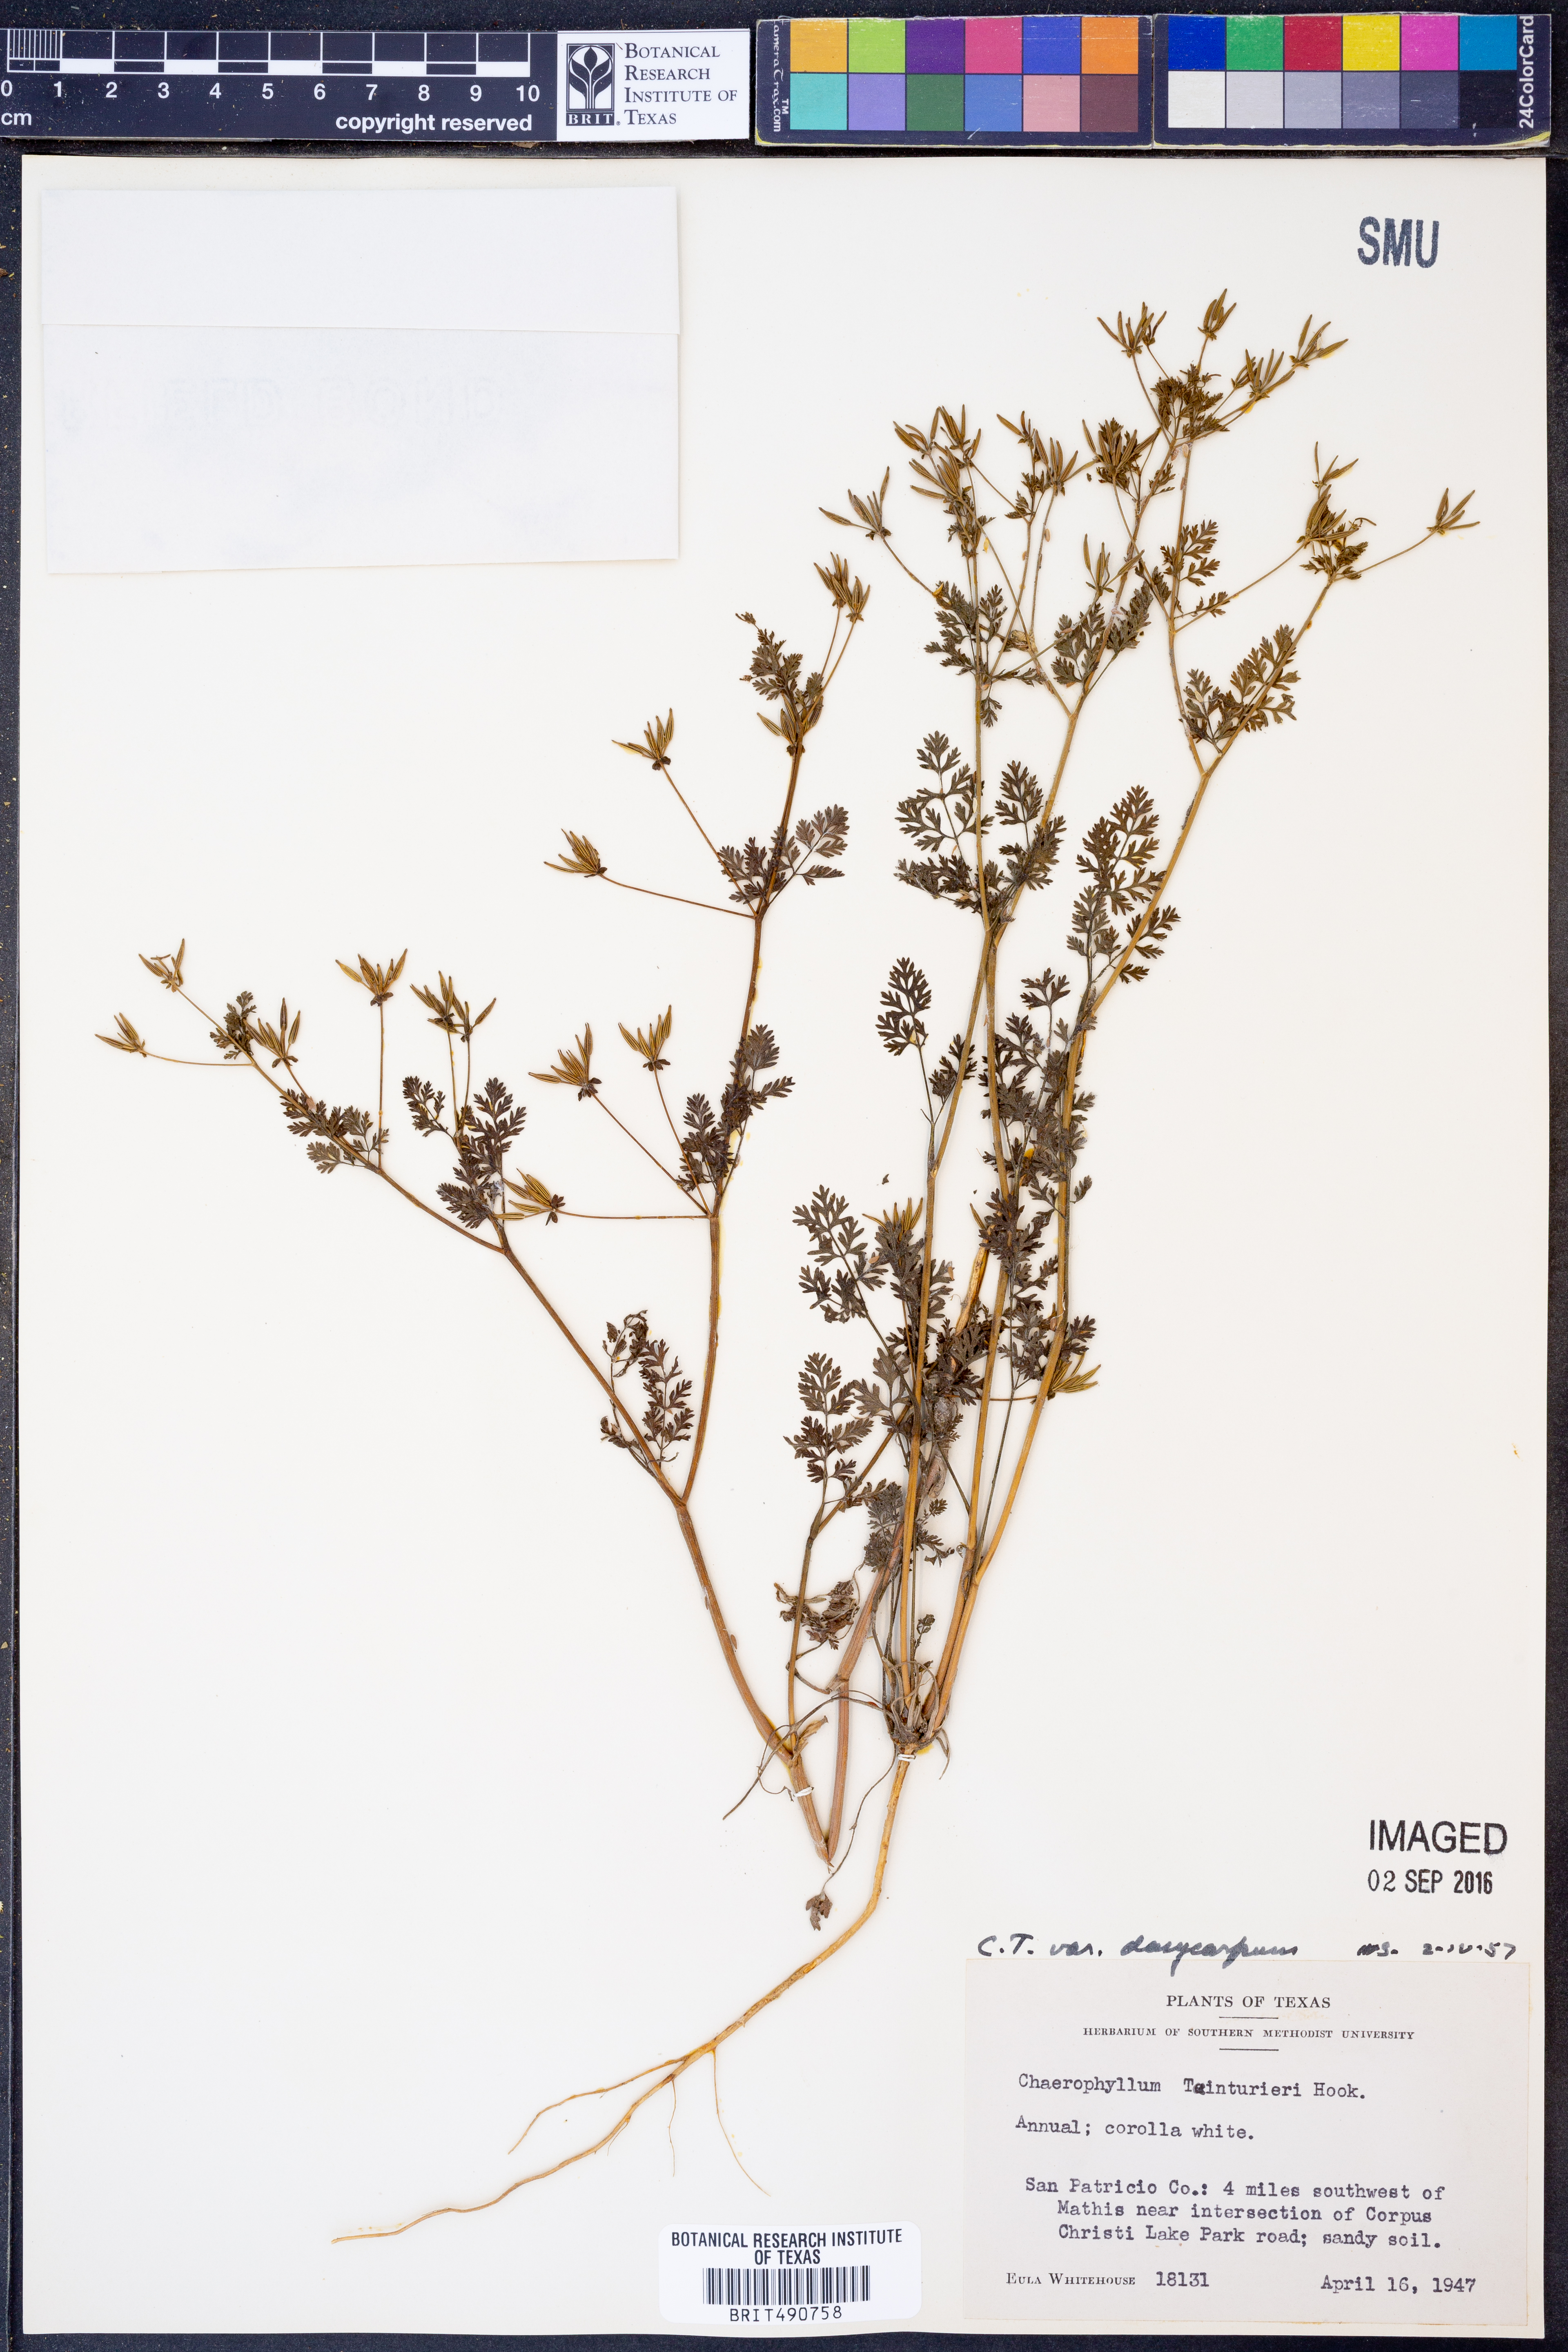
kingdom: Plantae
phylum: Tracheophyta
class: Magnoliopsida
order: Apiales
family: Apiaceae
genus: Chaerophyllum
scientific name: Chaerophyllum dasycarpum
